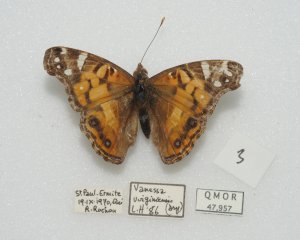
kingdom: Animalia
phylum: Arthropoda
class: Insecta
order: Lepidoptera
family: Nymphalidae
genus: Vanessa
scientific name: Vanessa virginiensis
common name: American Lady
